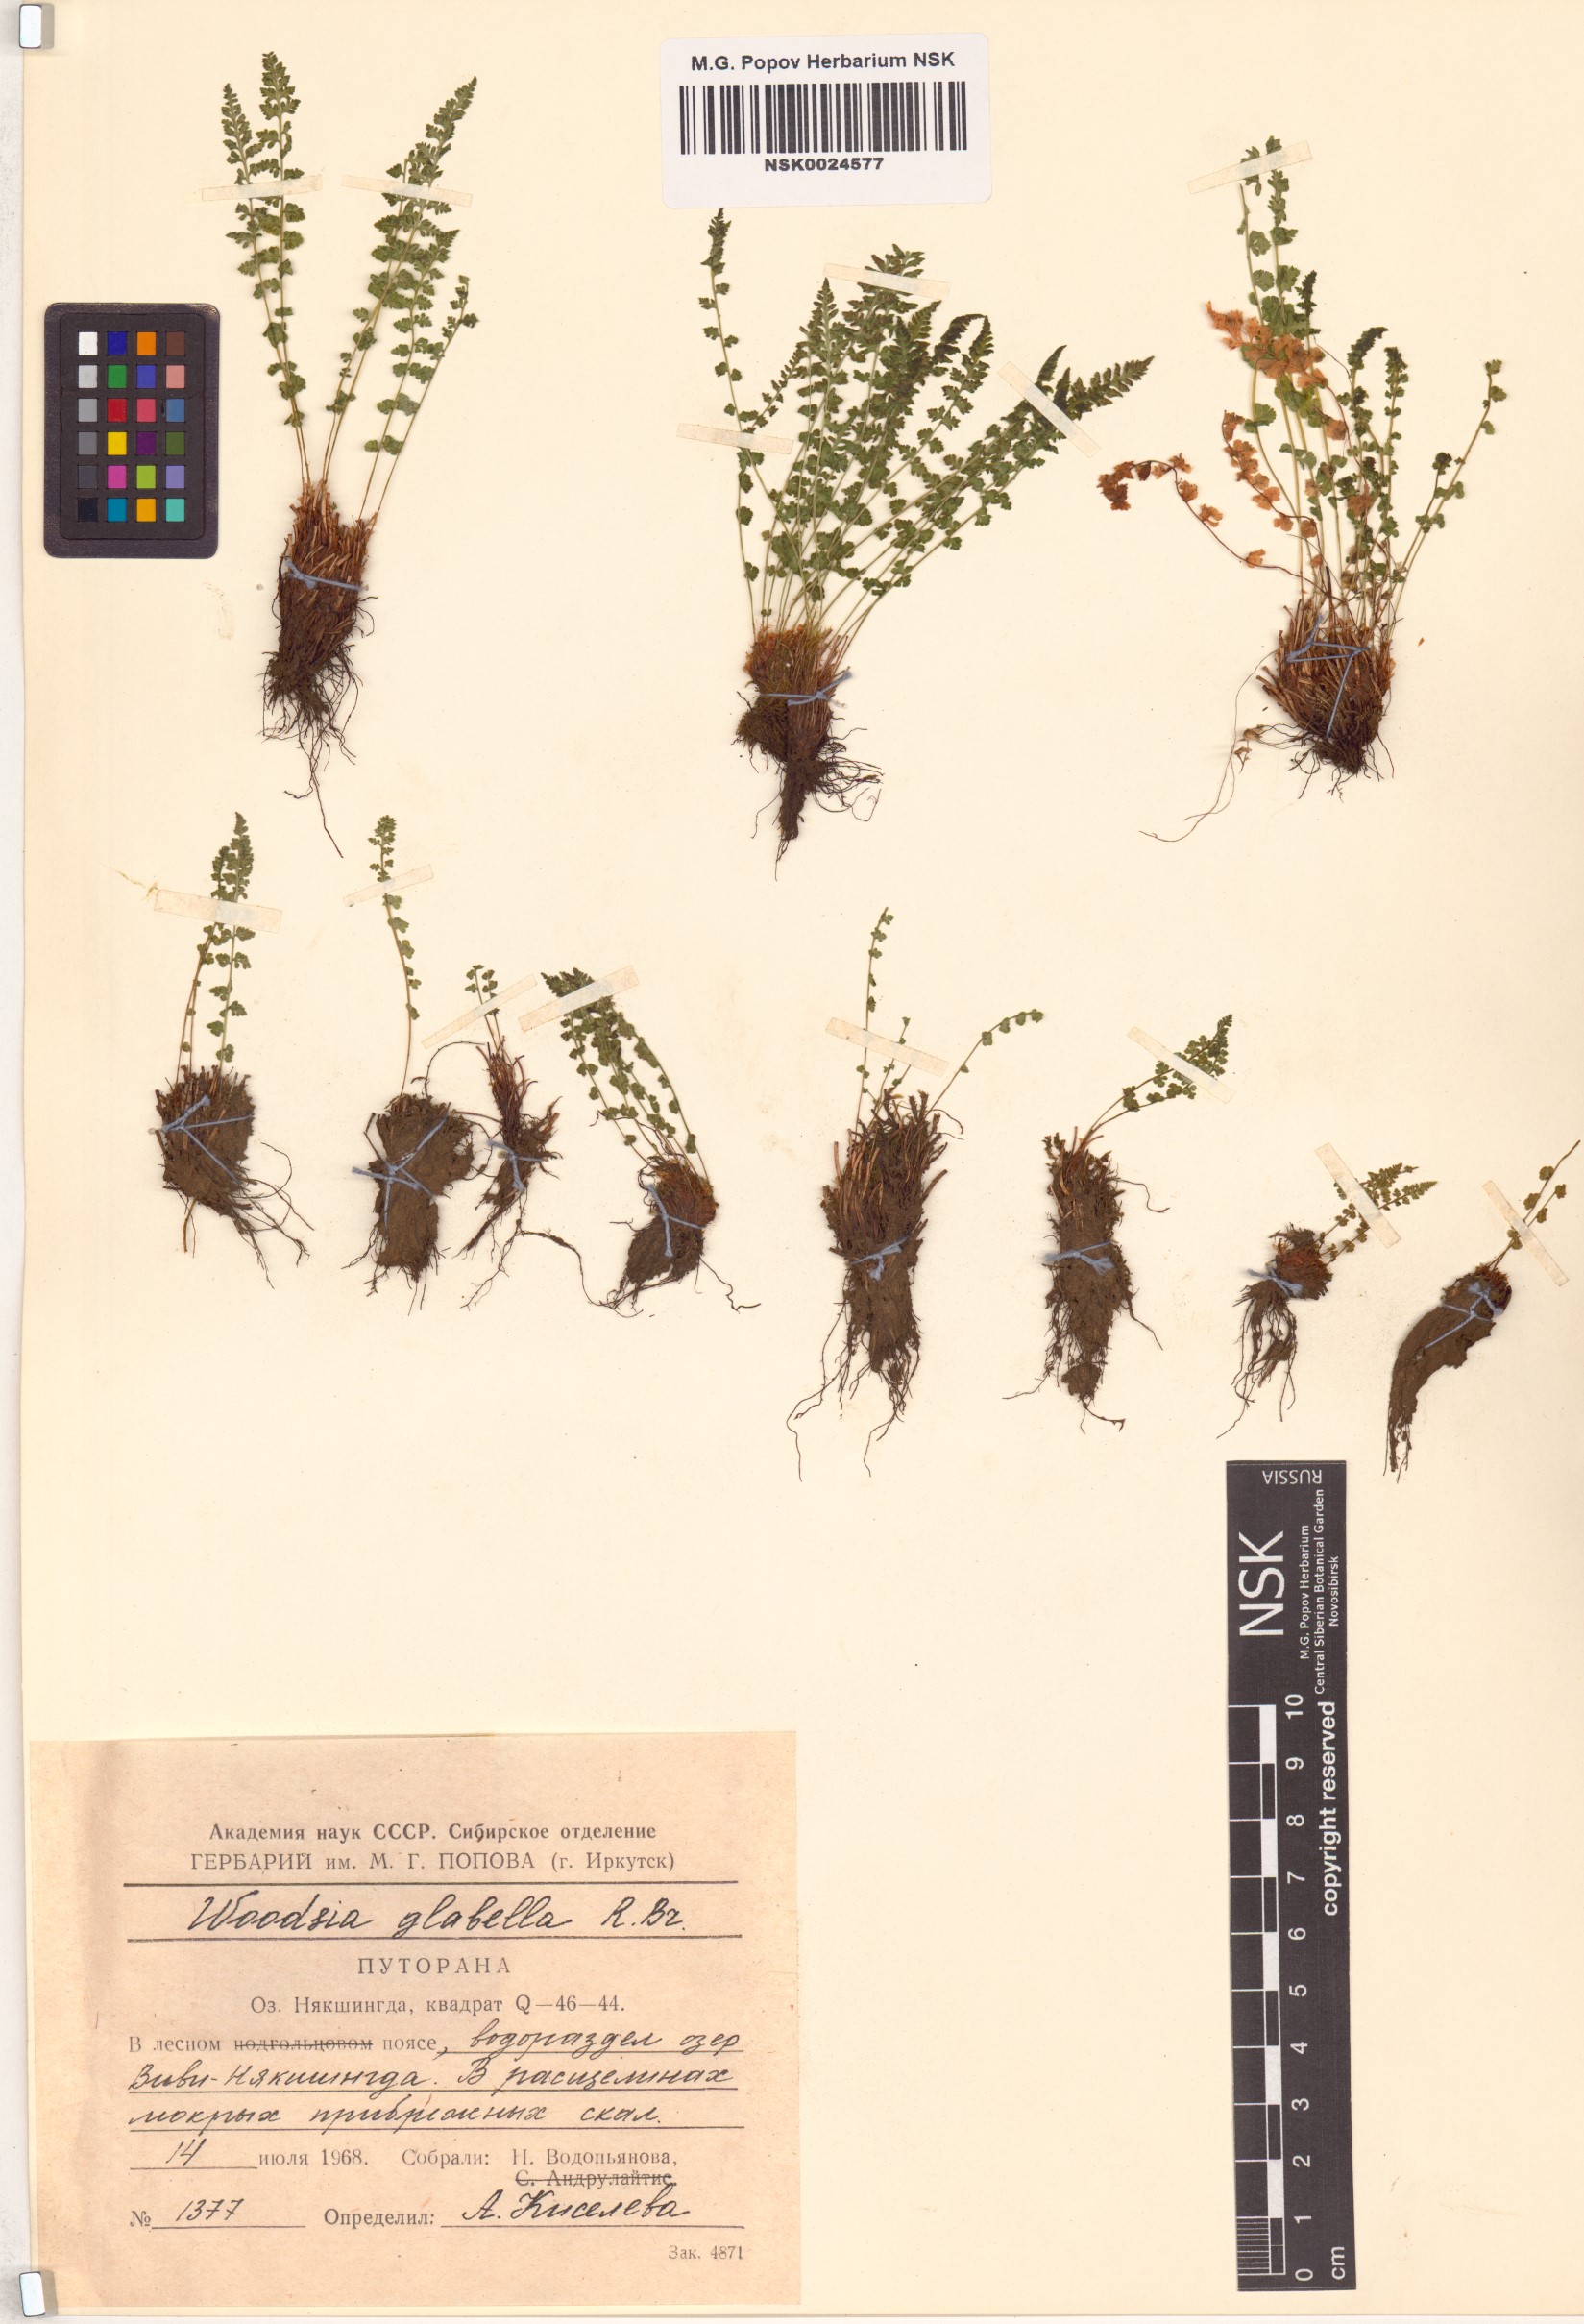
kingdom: Plantae
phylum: Tracheophyta
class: Polypodiopsida
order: Polypodiales
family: Woodsiaceae
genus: Woodsia
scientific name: Woodsia glabella
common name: Smooth woodsia
